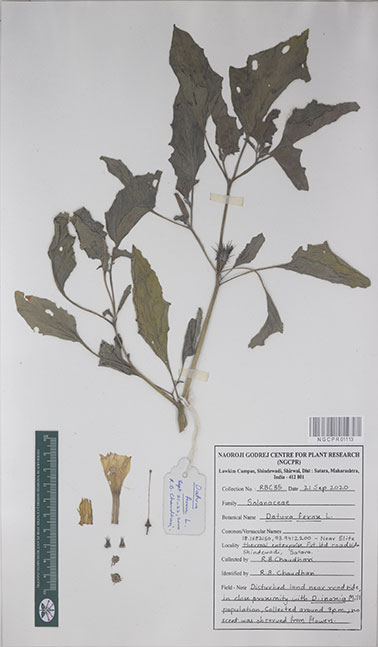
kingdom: Plantae
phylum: Tracheophyta
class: Magnoliopsida
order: Solanales
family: Solanaceae
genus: Datura
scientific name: Datura ferox
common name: Angel's-trumpets
